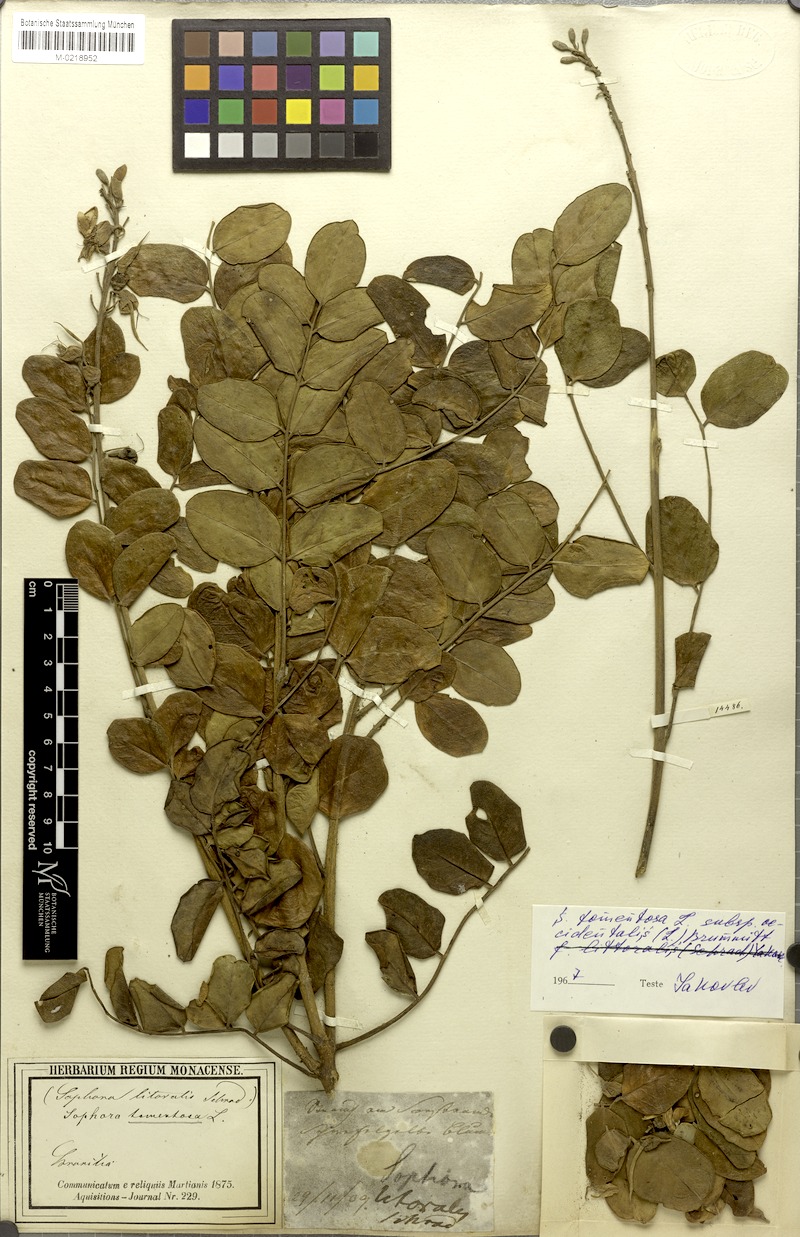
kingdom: Plantae
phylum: Tracheophyta
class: Magnoliopsida
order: Fabales
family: Fabaceae
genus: Sophora
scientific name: Sophora tomentosa
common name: Yellow necklacepod
